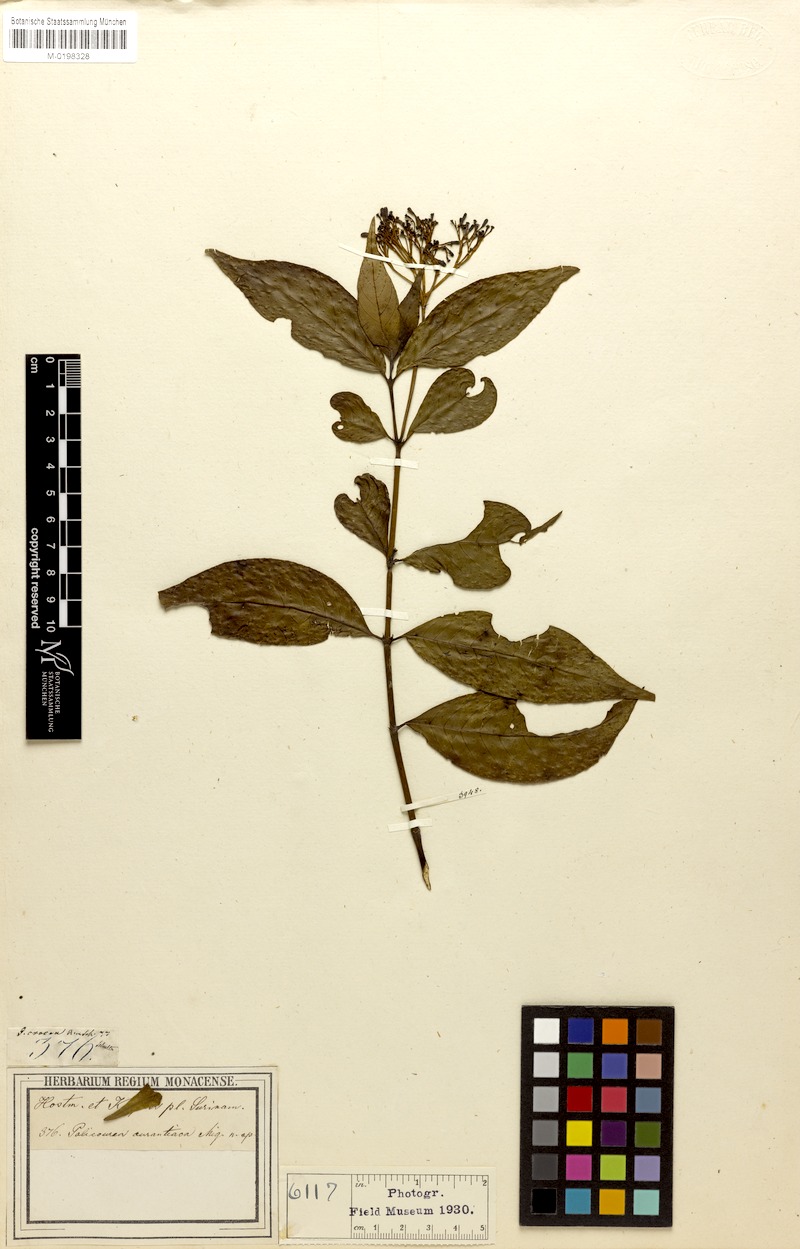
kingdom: Plantae
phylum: Tracheophyta
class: Magnoliopsida
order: Gentianales
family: Rubiaceae
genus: Palicourea
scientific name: Palicourea croceoides
